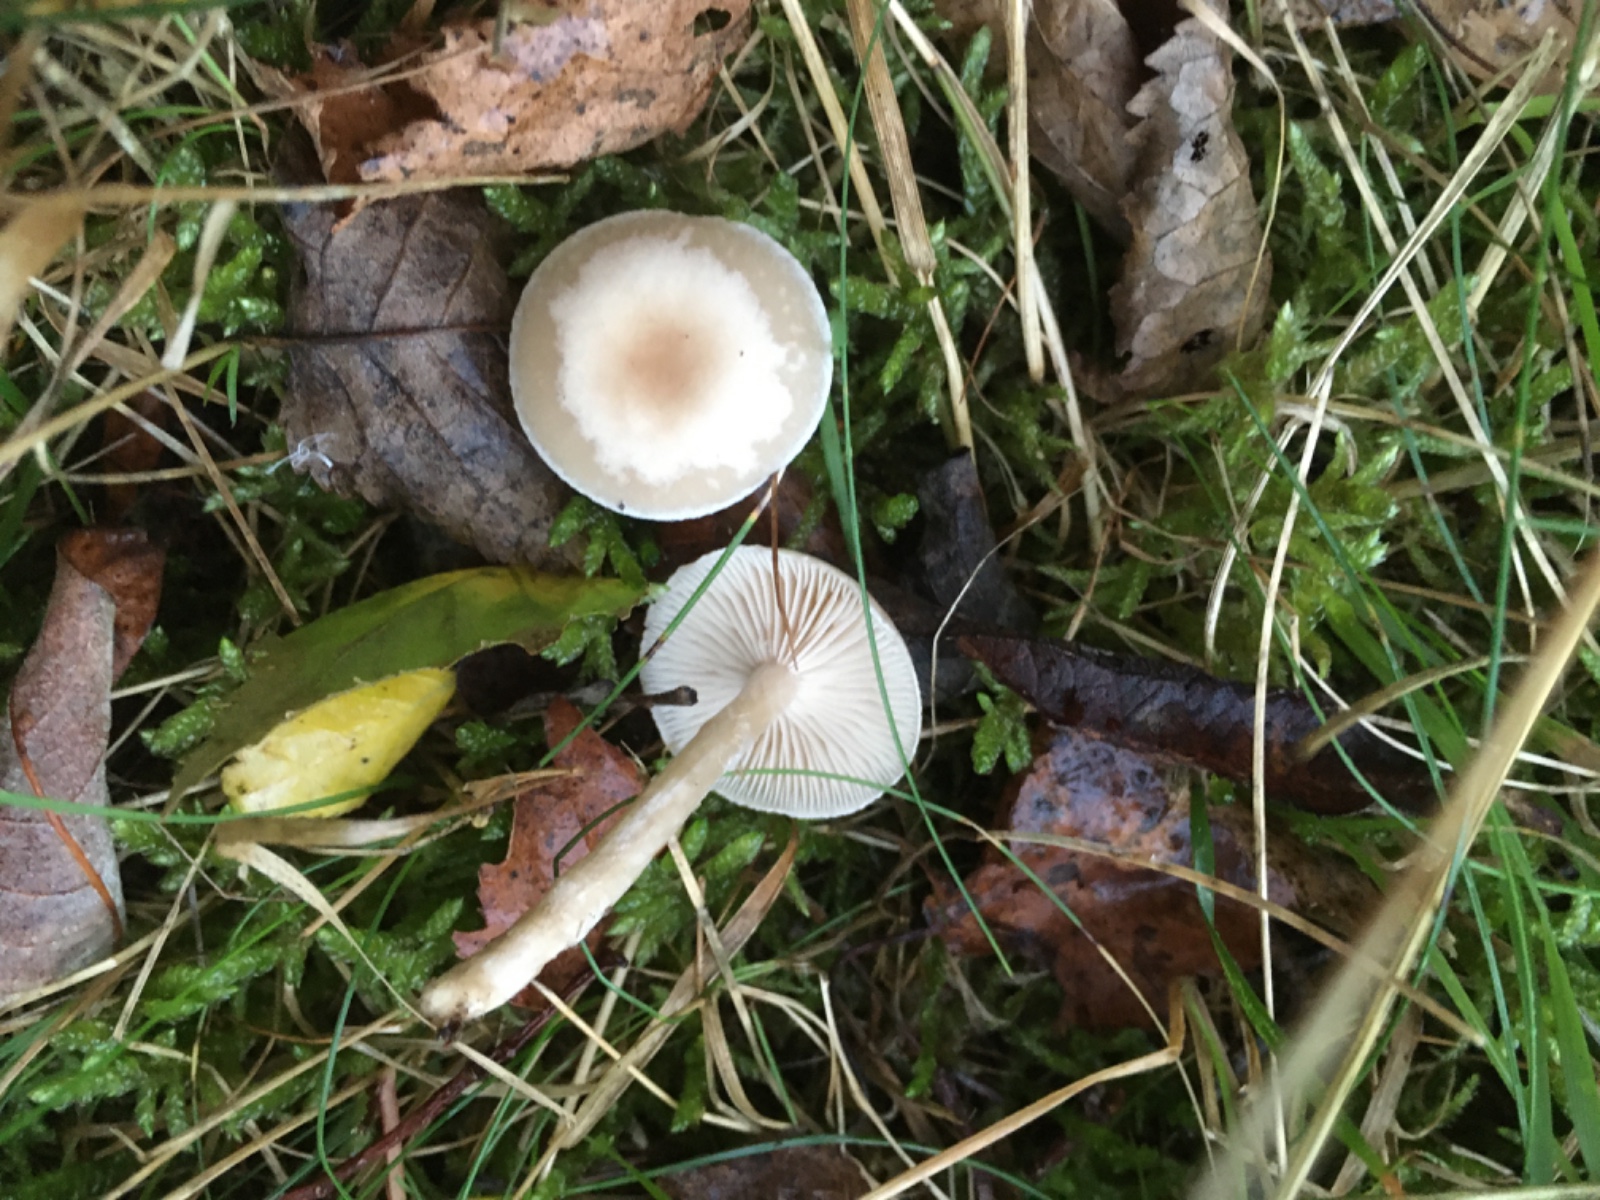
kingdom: Fungi
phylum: Basidiomycota
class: Agaricomycetes
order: Agaricales
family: Tricholomataceae
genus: Clitocybe
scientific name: Clitocybe
